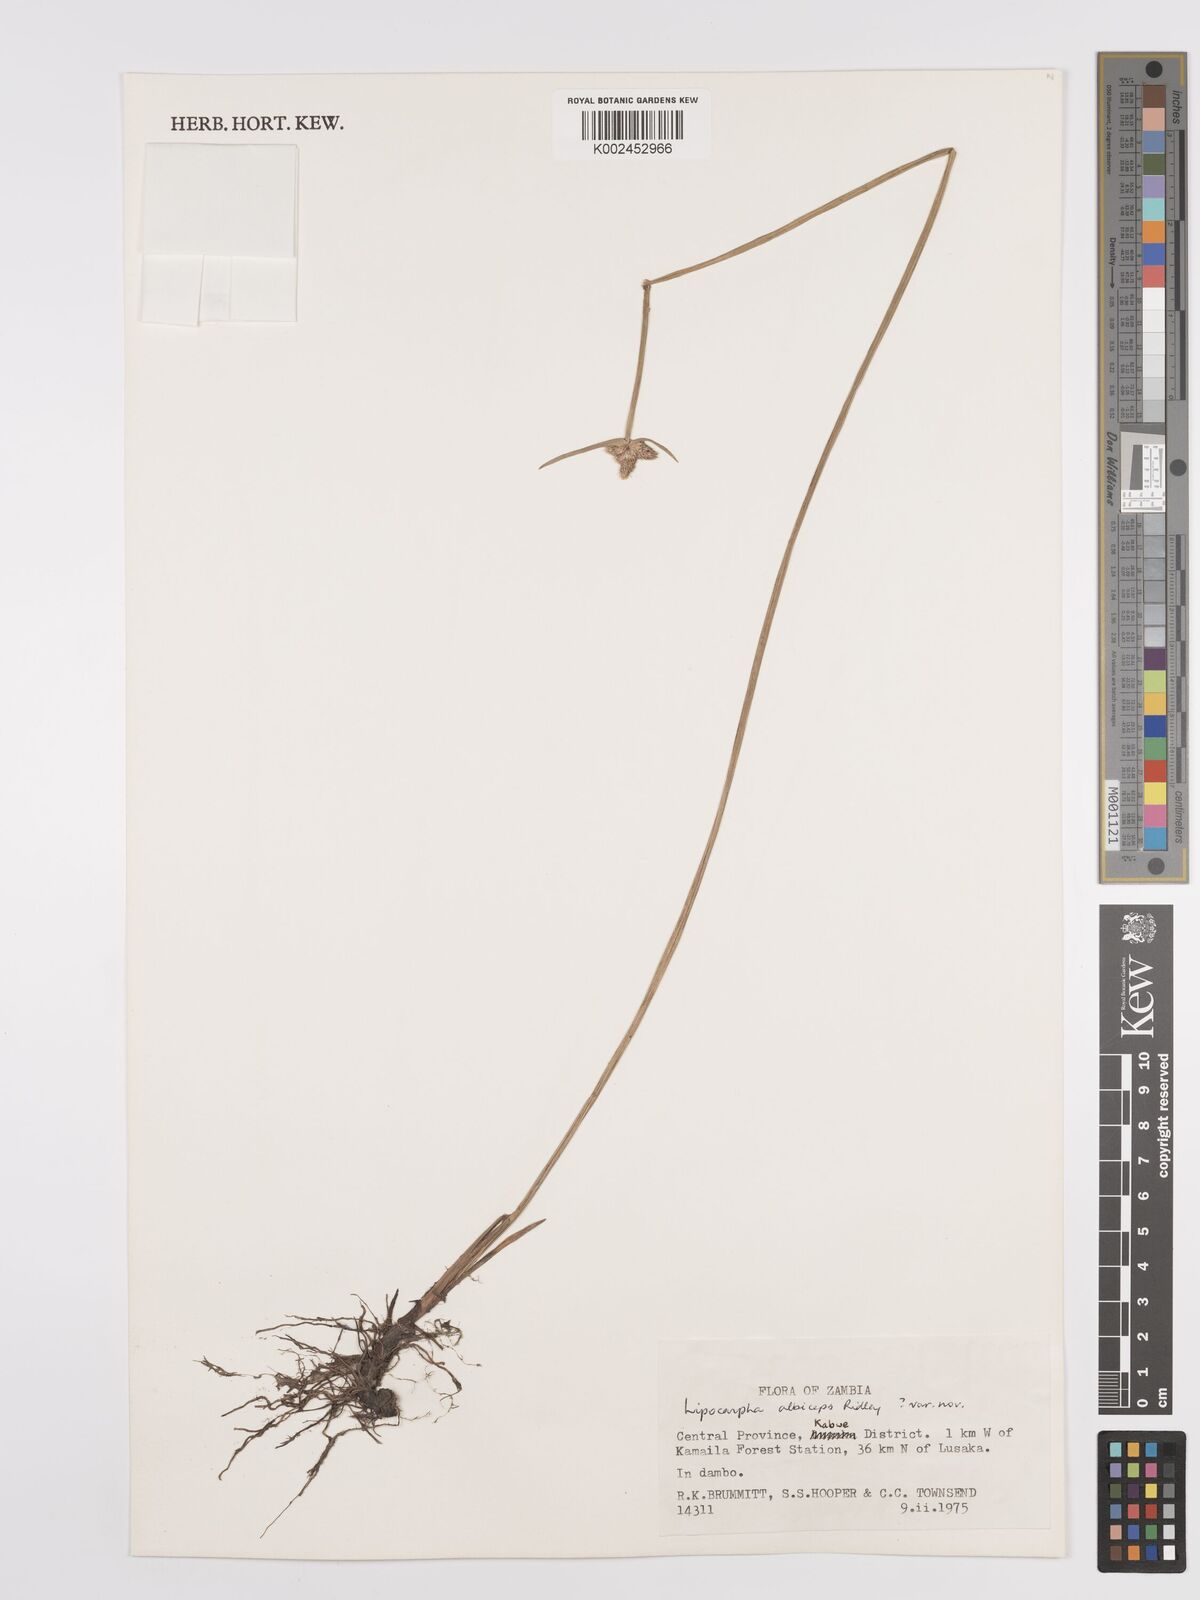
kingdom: Plantae
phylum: Tracheophyta
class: Liliopsida
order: Poales
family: Cyperaceae
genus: Cyperus
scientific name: Cyperus albiceps
